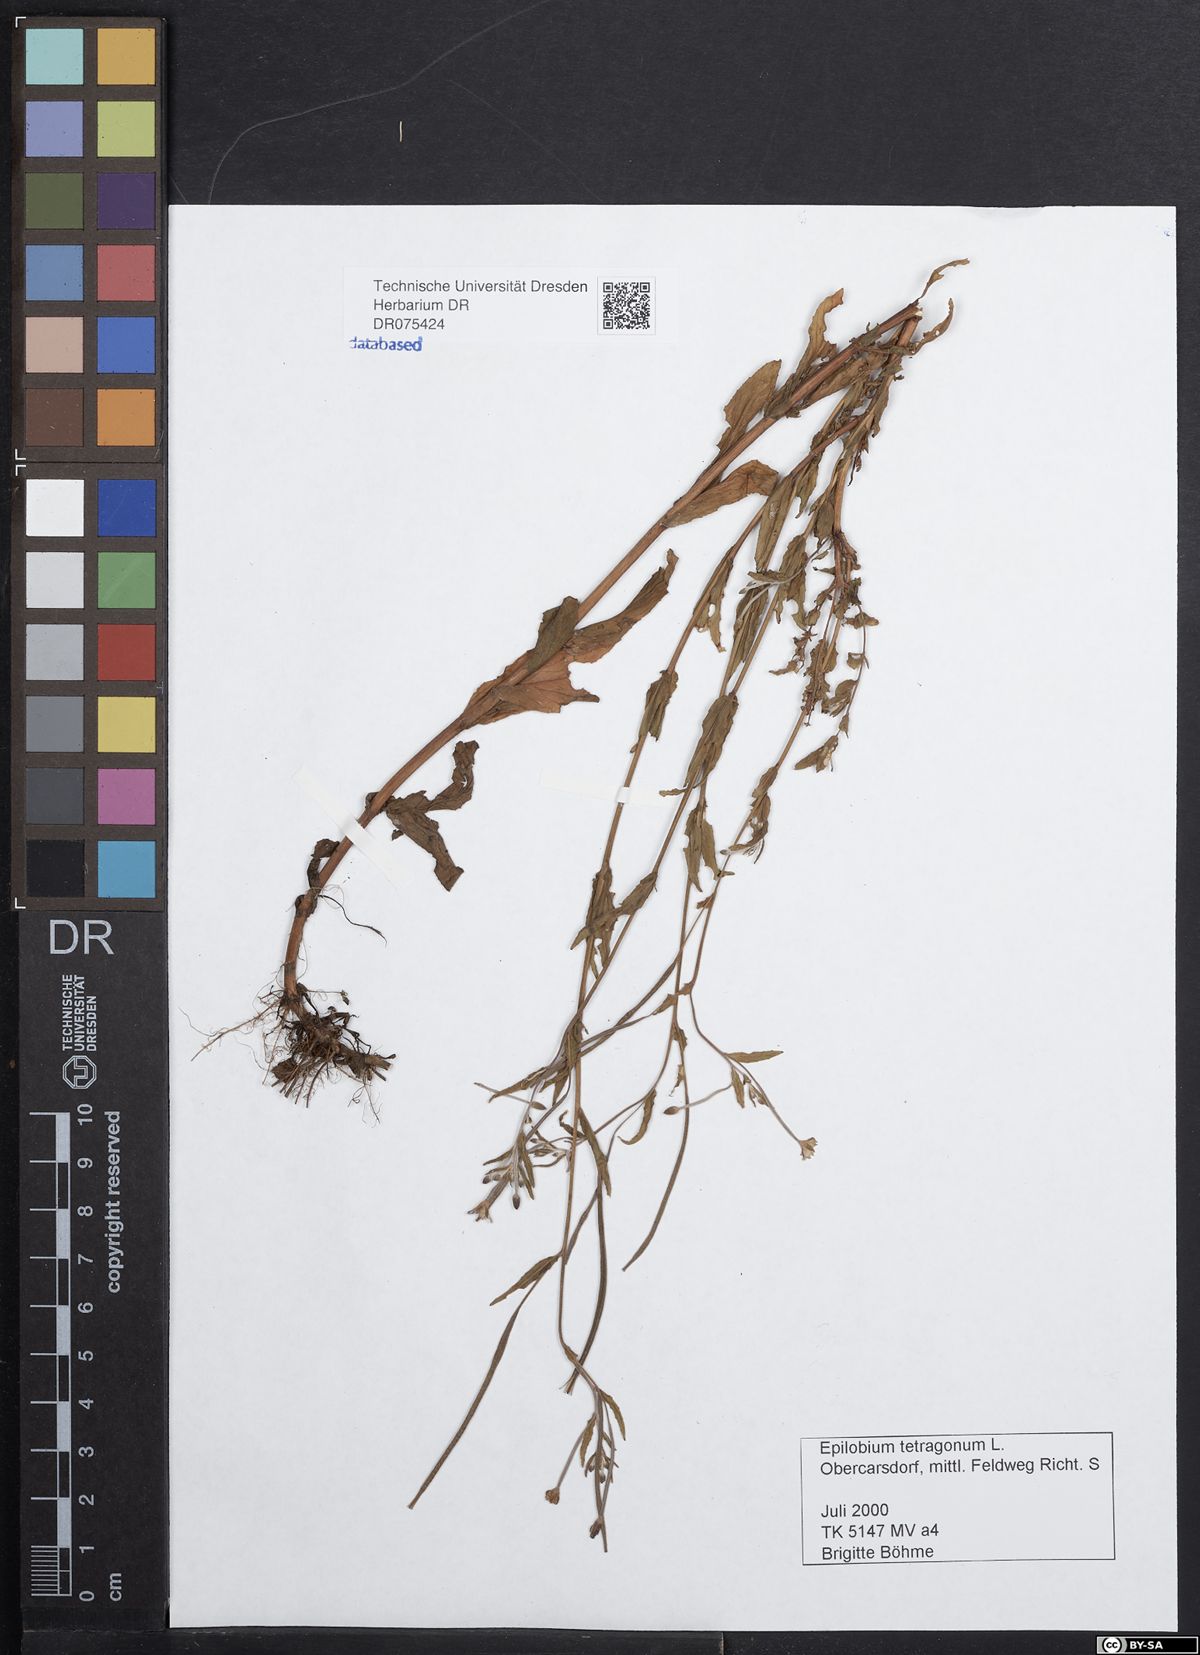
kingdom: Plantae
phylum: Tracheophyta
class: Magnoliopsida
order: Myrtales
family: Onagraceae
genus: Epilobium
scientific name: Epilobium tetragonum
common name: Square-stemmed willowherb
